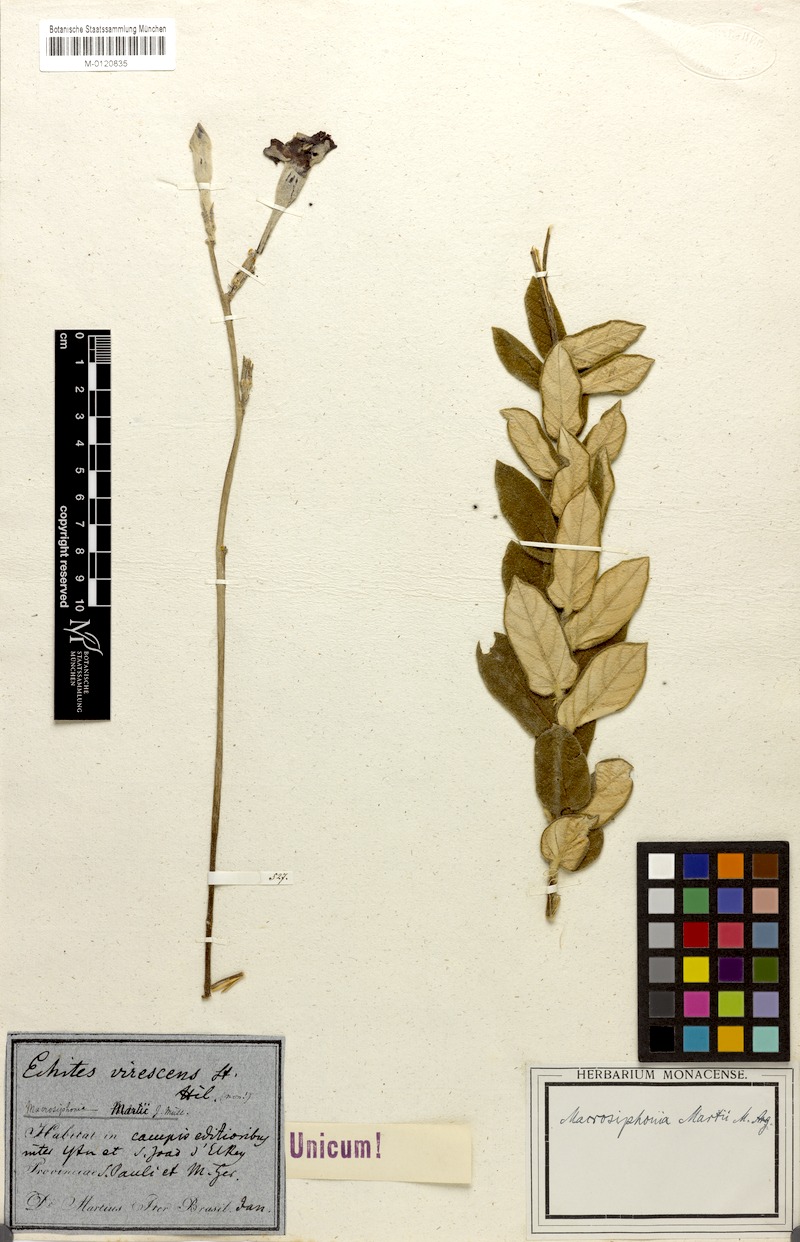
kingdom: Plantae
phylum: Tracheophyta
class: Magnoliopsida
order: Gentianales
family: Apocynaceae
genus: Mandevilla
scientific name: Mandevilla martii
